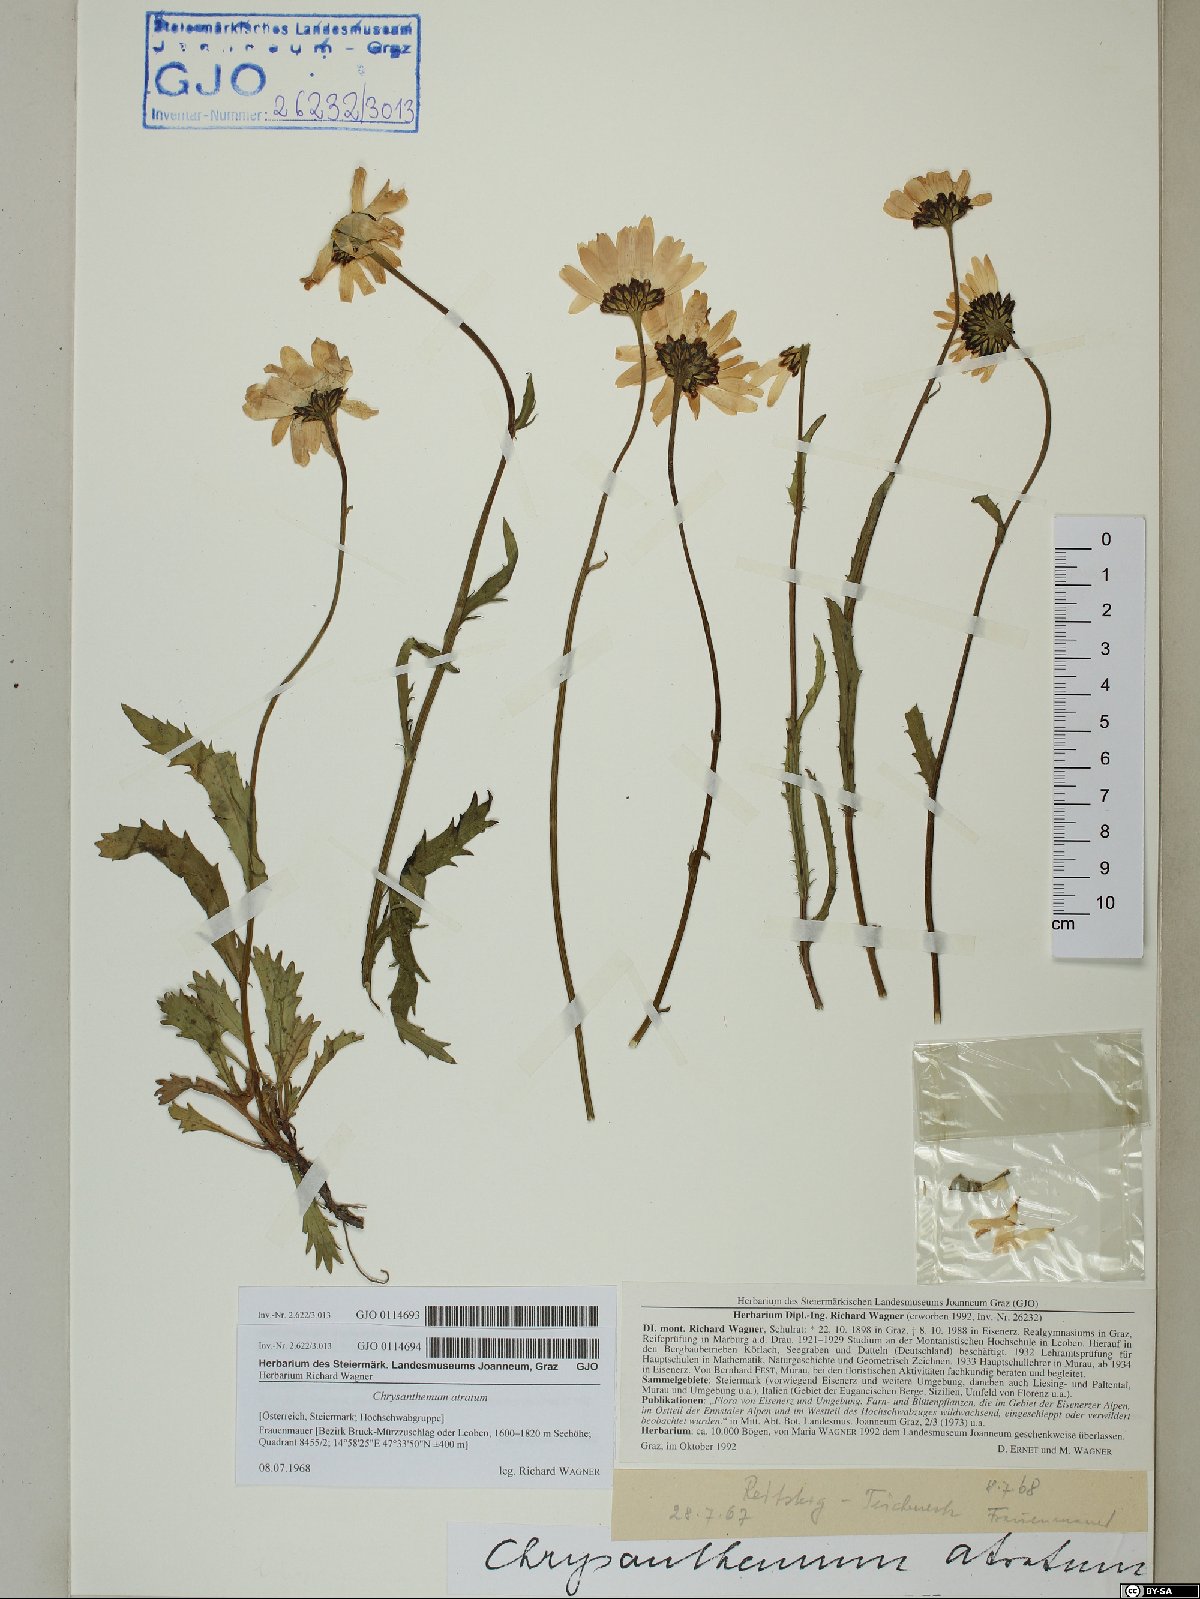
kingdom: Plantae
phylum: Tracheophyta
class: Magnoliopsida
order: Asterales
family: Asteraceae
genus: Leucanthemum
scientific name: Leucanthemum atratum
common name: Saw-leaved moon-daisy
